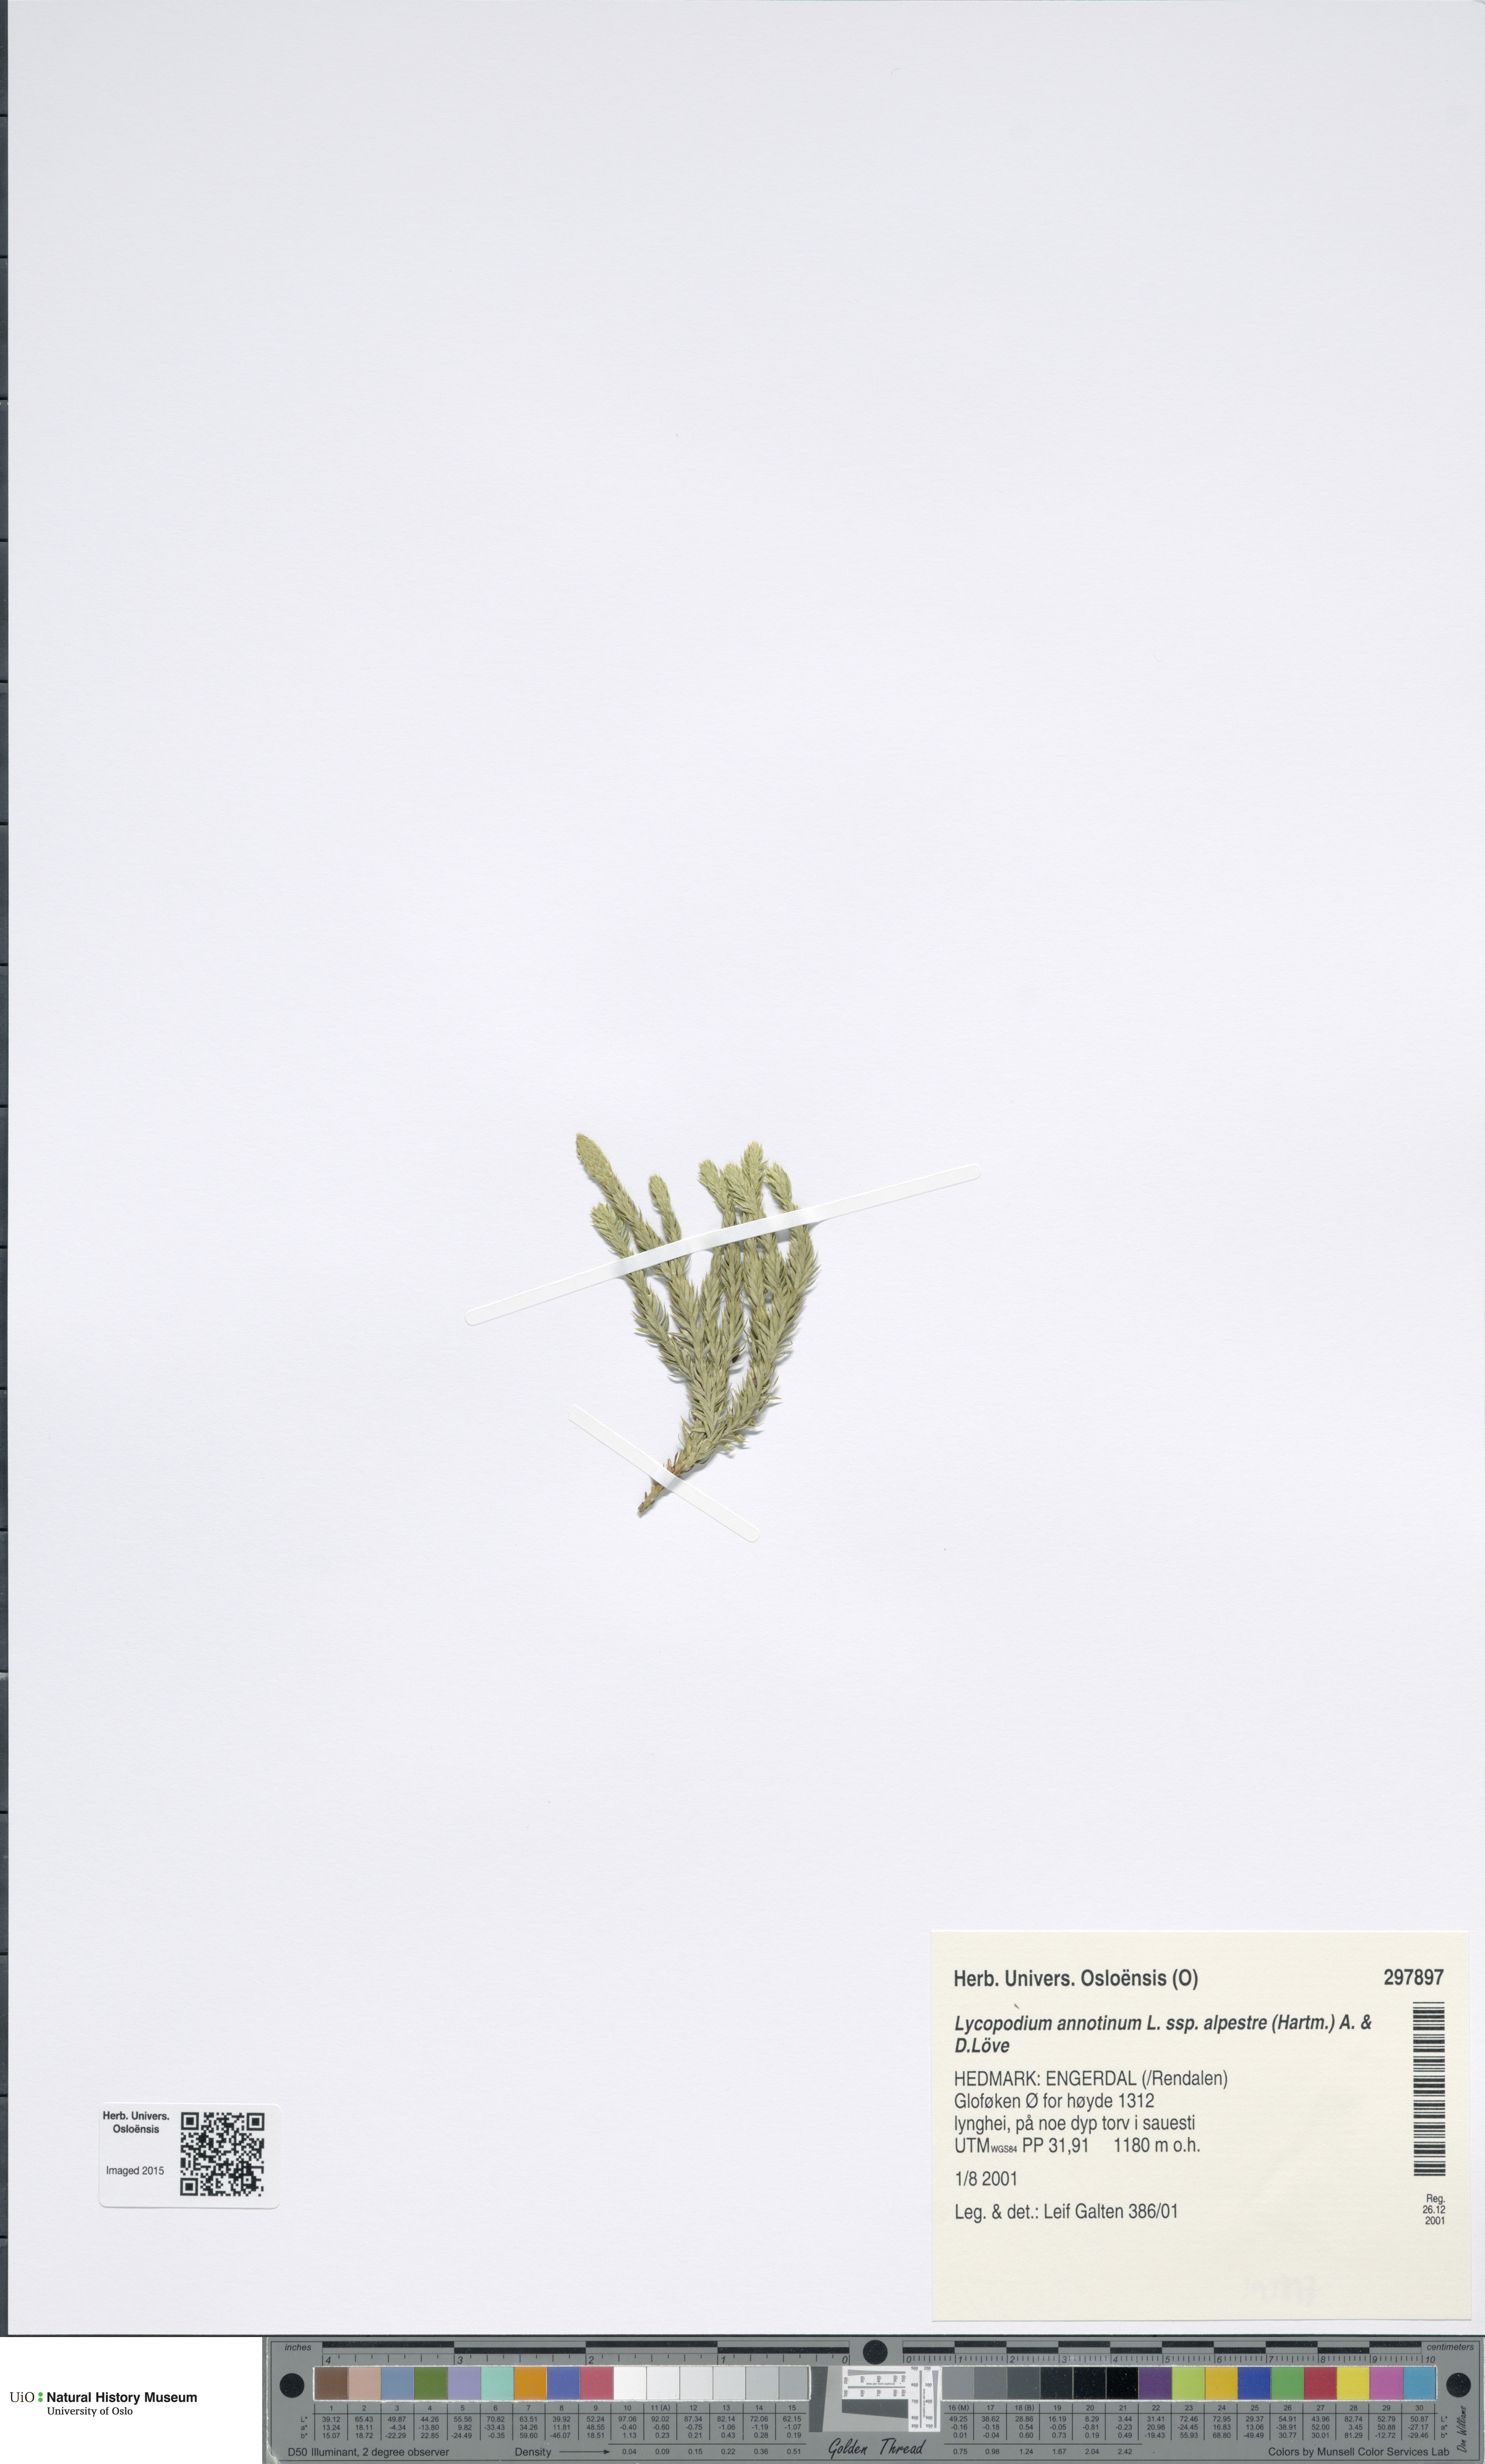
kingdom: Plantae
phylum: Tracheophyta
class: Lycopodiopsida
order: Lycopodiales
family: Lycopodiaceae
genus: Spinulum
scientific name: Spinulum annotinum
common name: Interrupted club-moss
